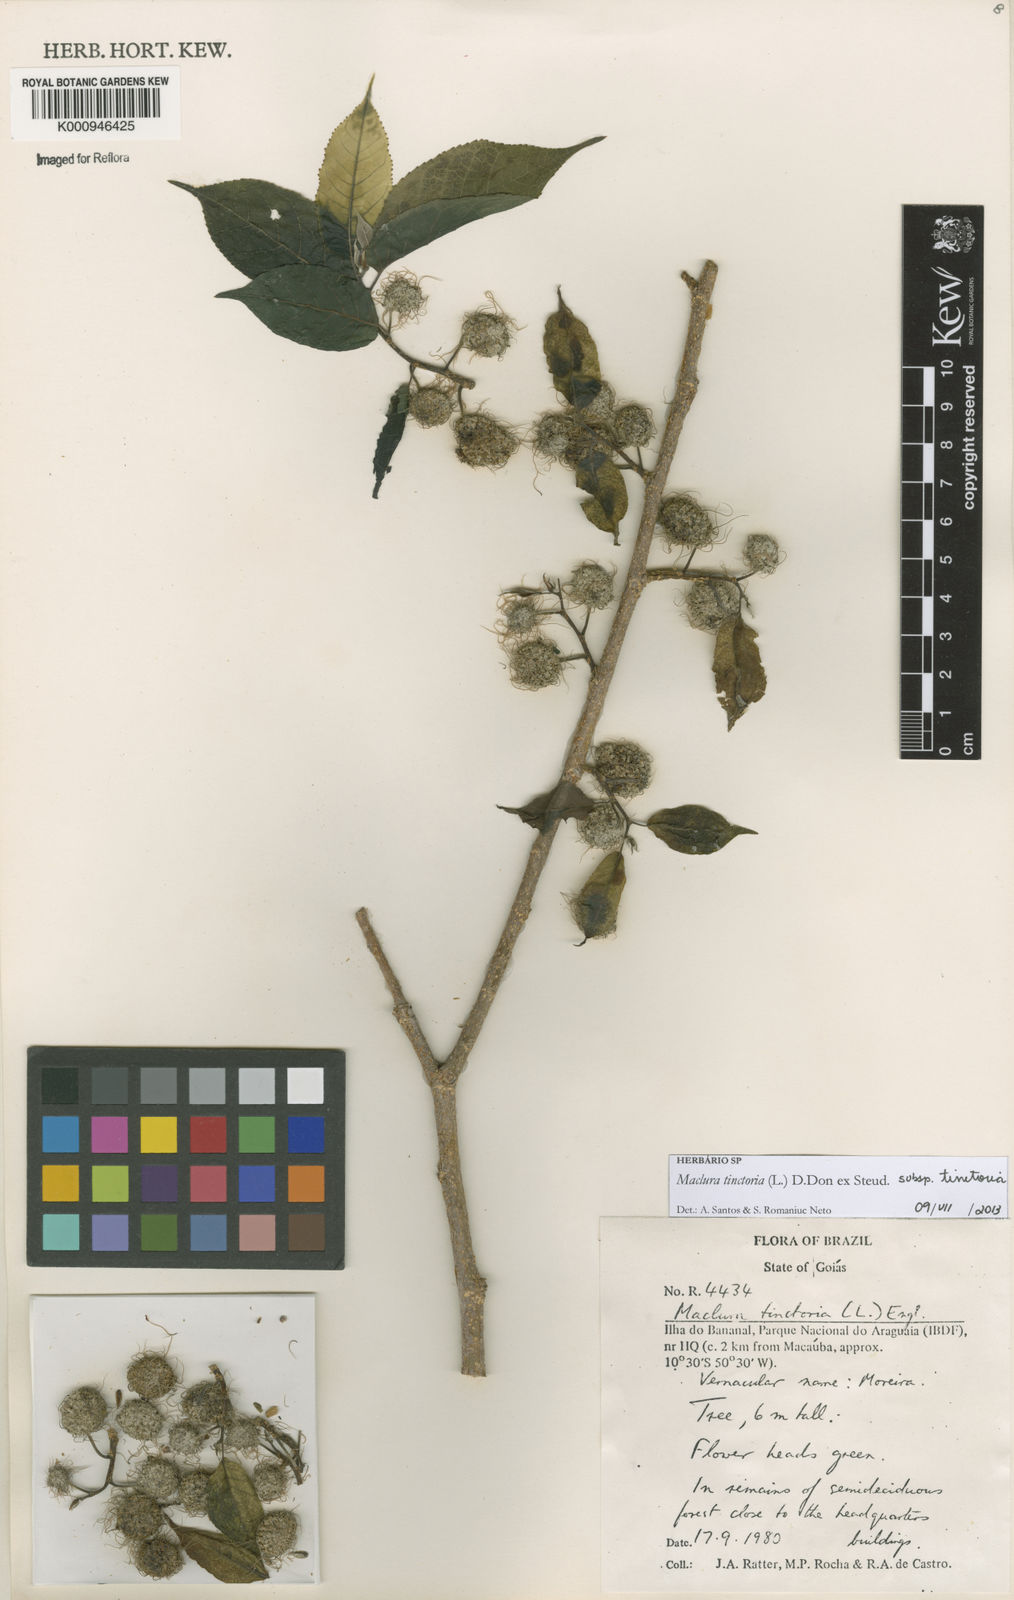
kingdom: Plantae
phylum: Tracheophyta
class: Magnoliopsida
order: Rosales
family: Moraceae
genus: Maclura
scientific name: Maclura tinctoria
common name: Old fustic
